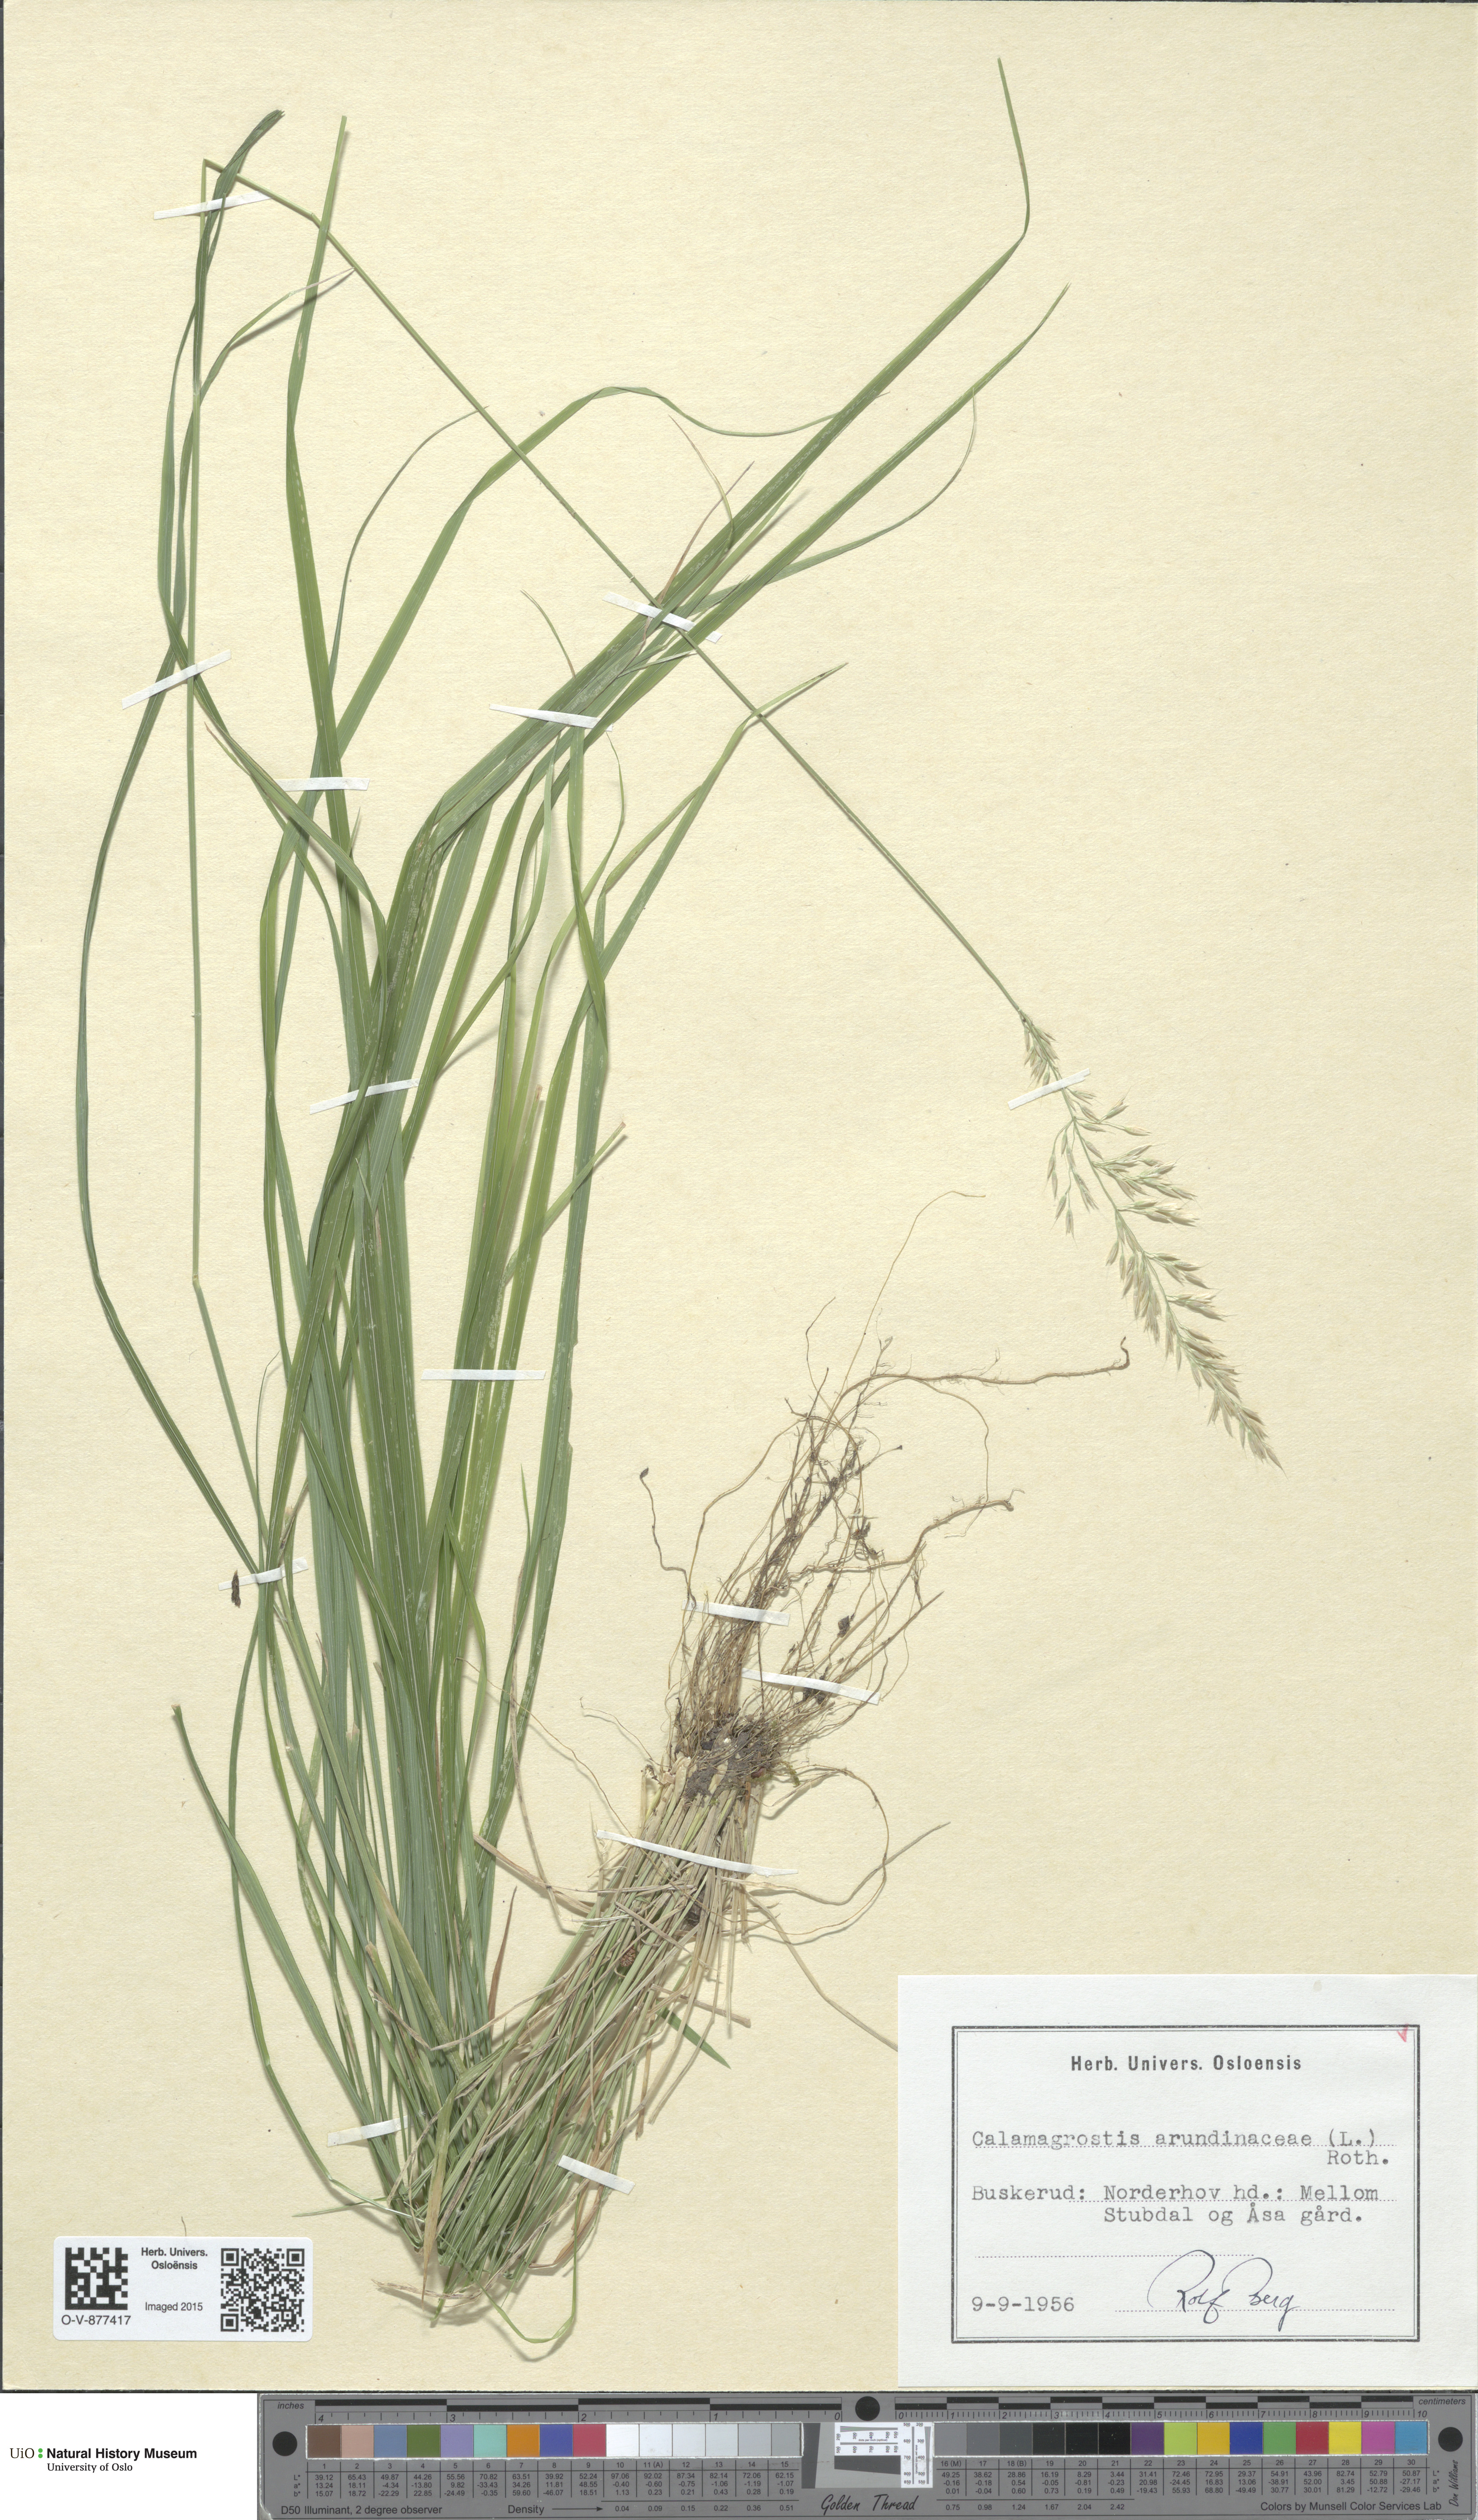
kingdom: Plantae
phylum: Tracheophyta
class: Liliopsida
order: Poales
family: Poaceae
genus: Calamagrostis
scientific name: Calamagrostis arundinacea
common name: Metskastik
